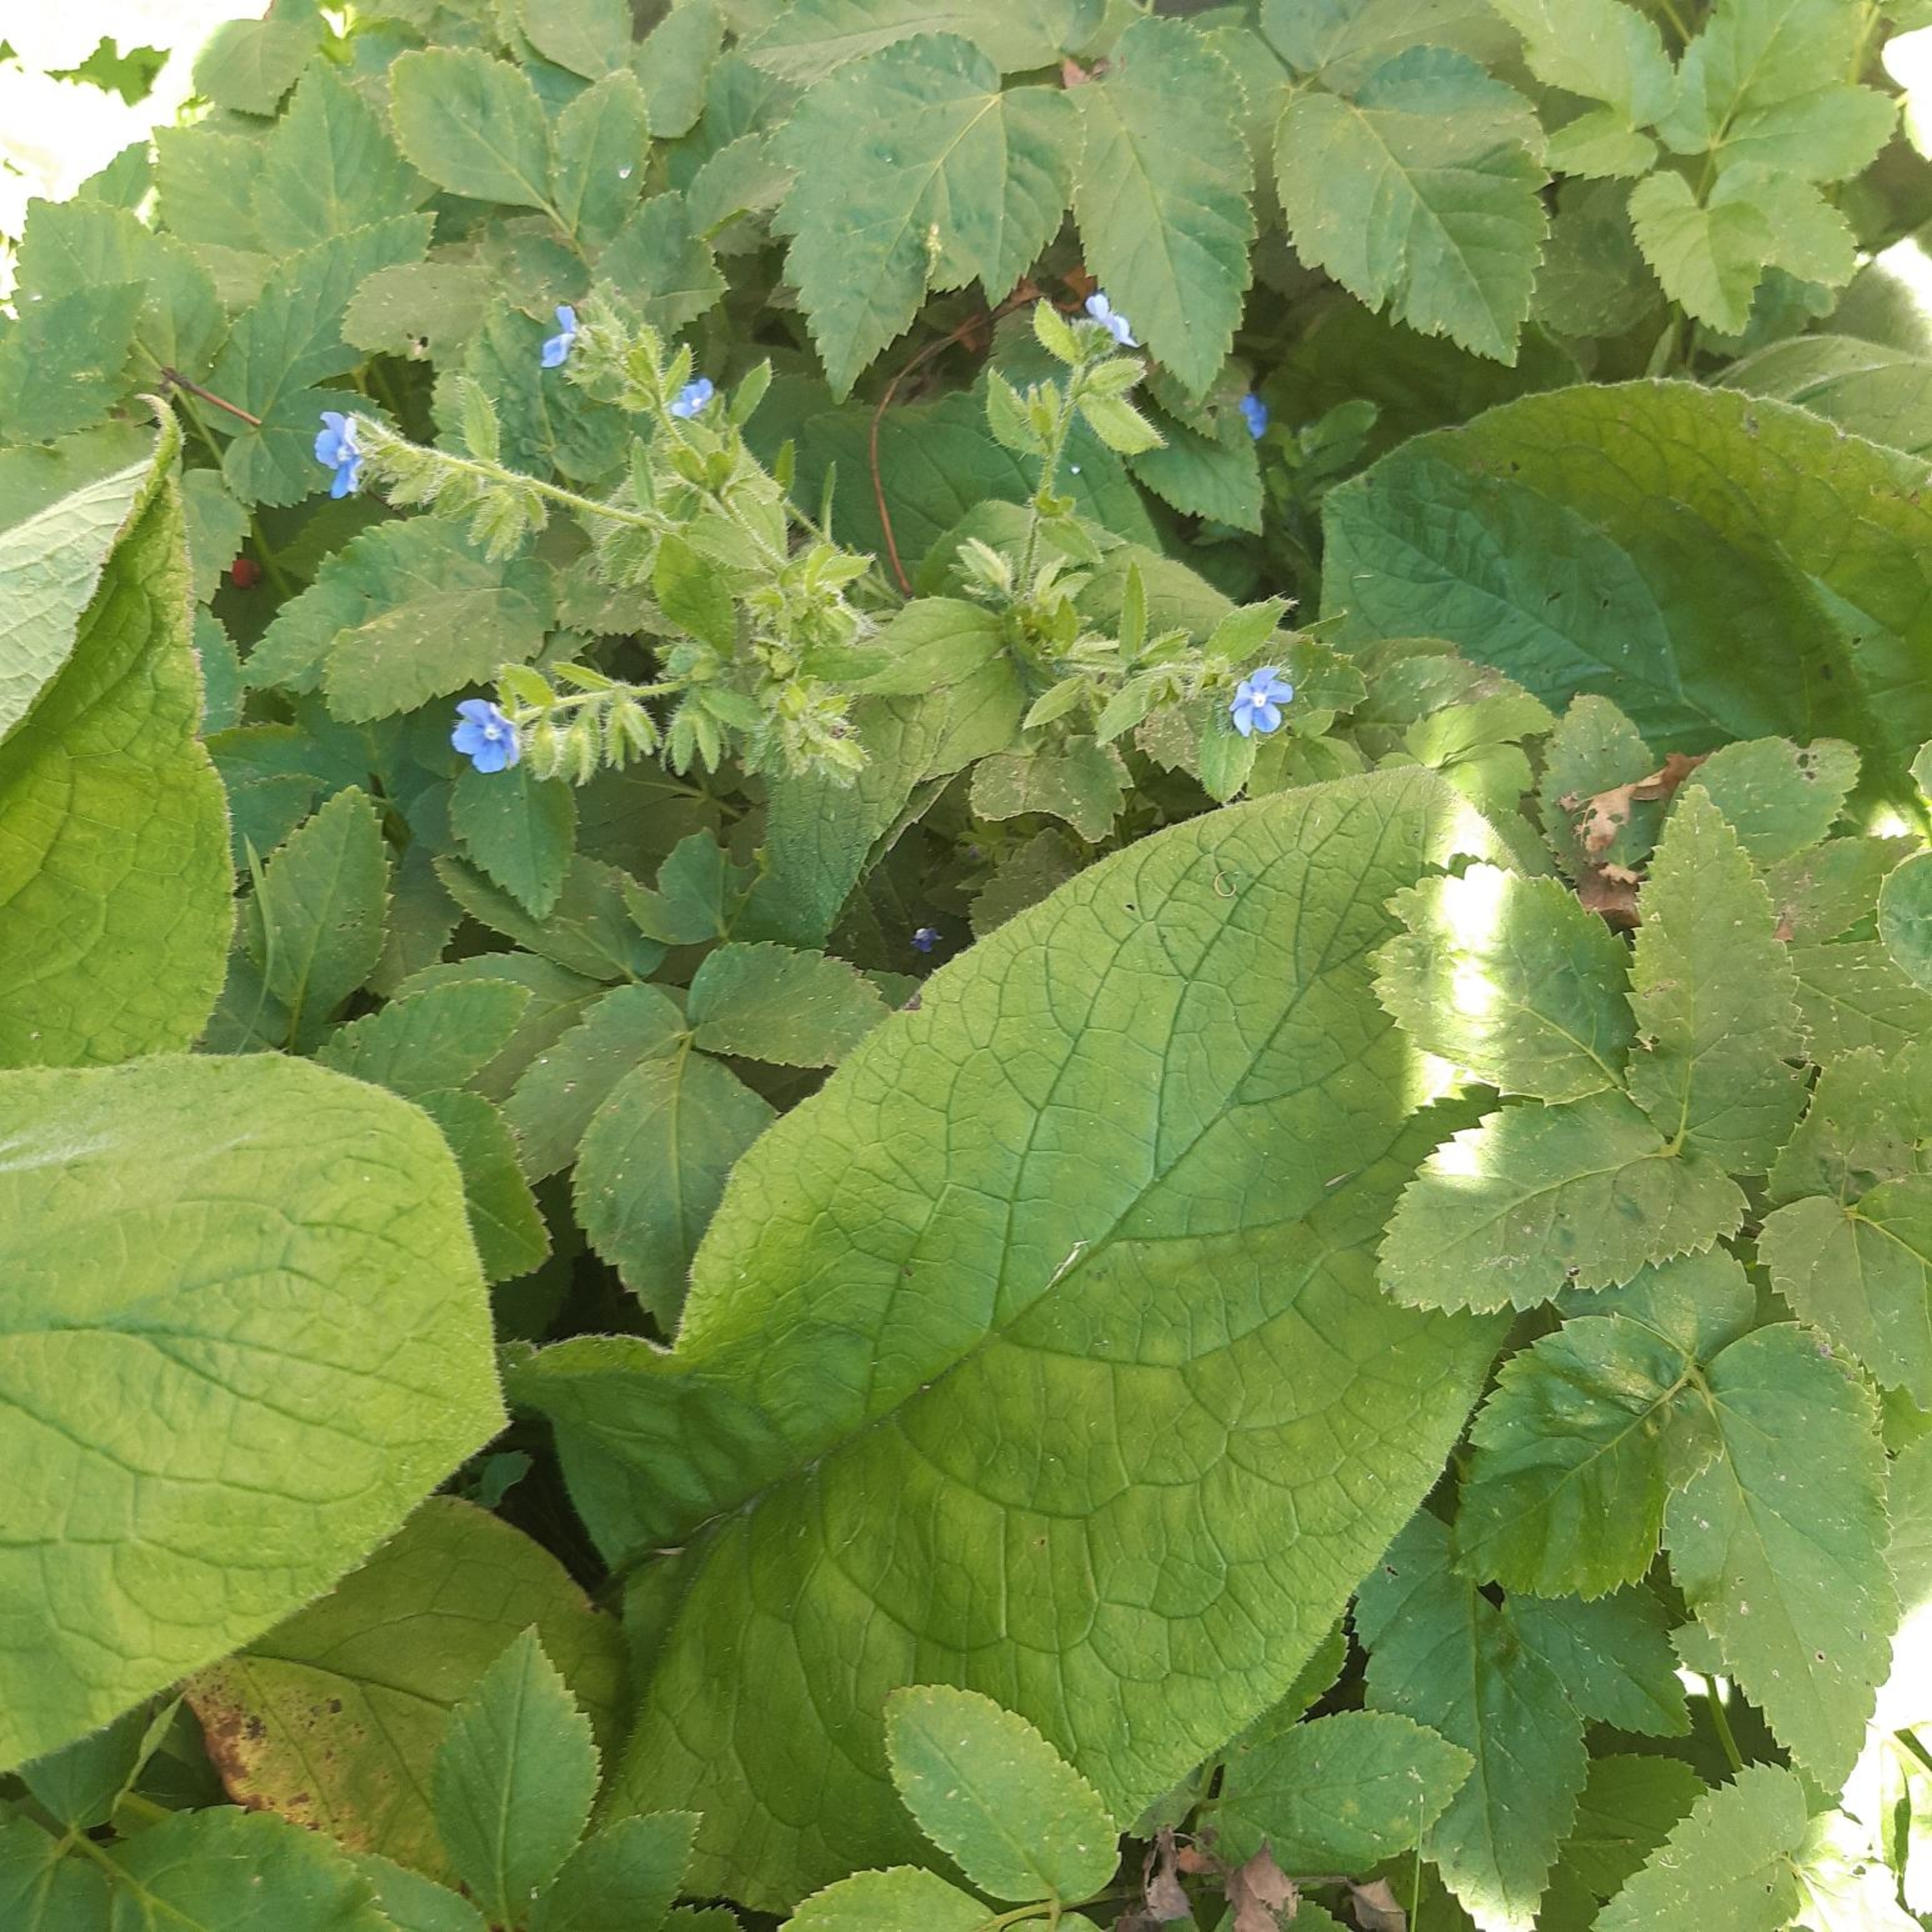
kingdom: Plantae
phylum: Tracheophyta
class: Magnoliopsida
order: Boraginales
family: Boraginaceae
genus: Pentaglottis
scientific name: Pentaglottis sempervirens
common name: Femtunge
